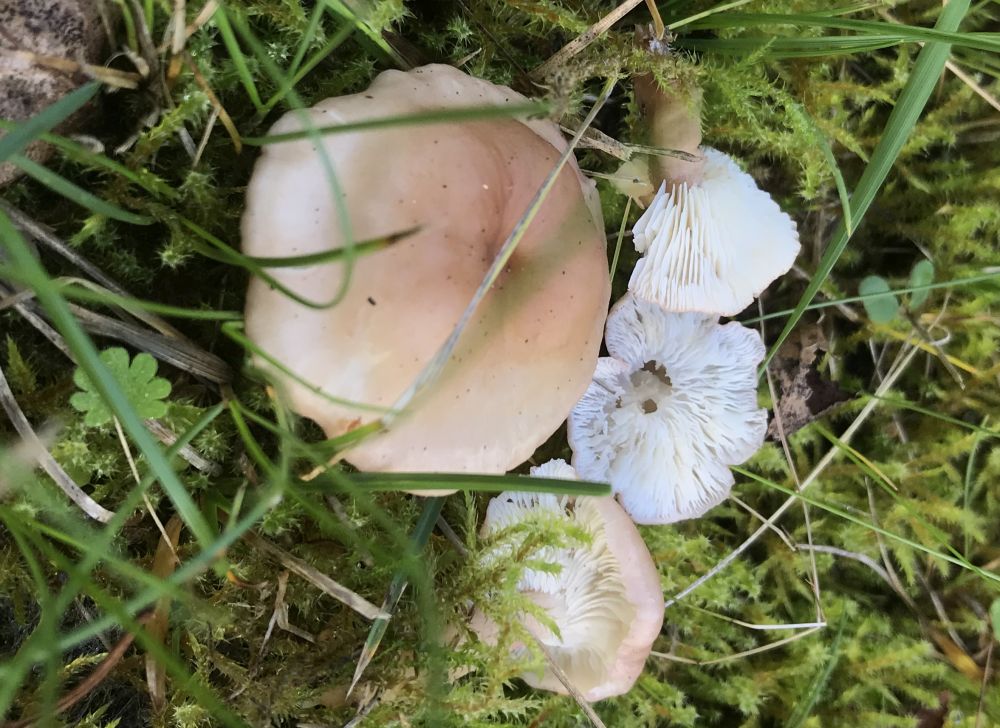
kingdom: Fungi
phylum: Basidiomycota
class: Agaricomycetes
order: Agaricales
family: Lyophyllaceae
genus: Calocybe
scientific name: Calocybe carnea
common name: rosa fagerhat
